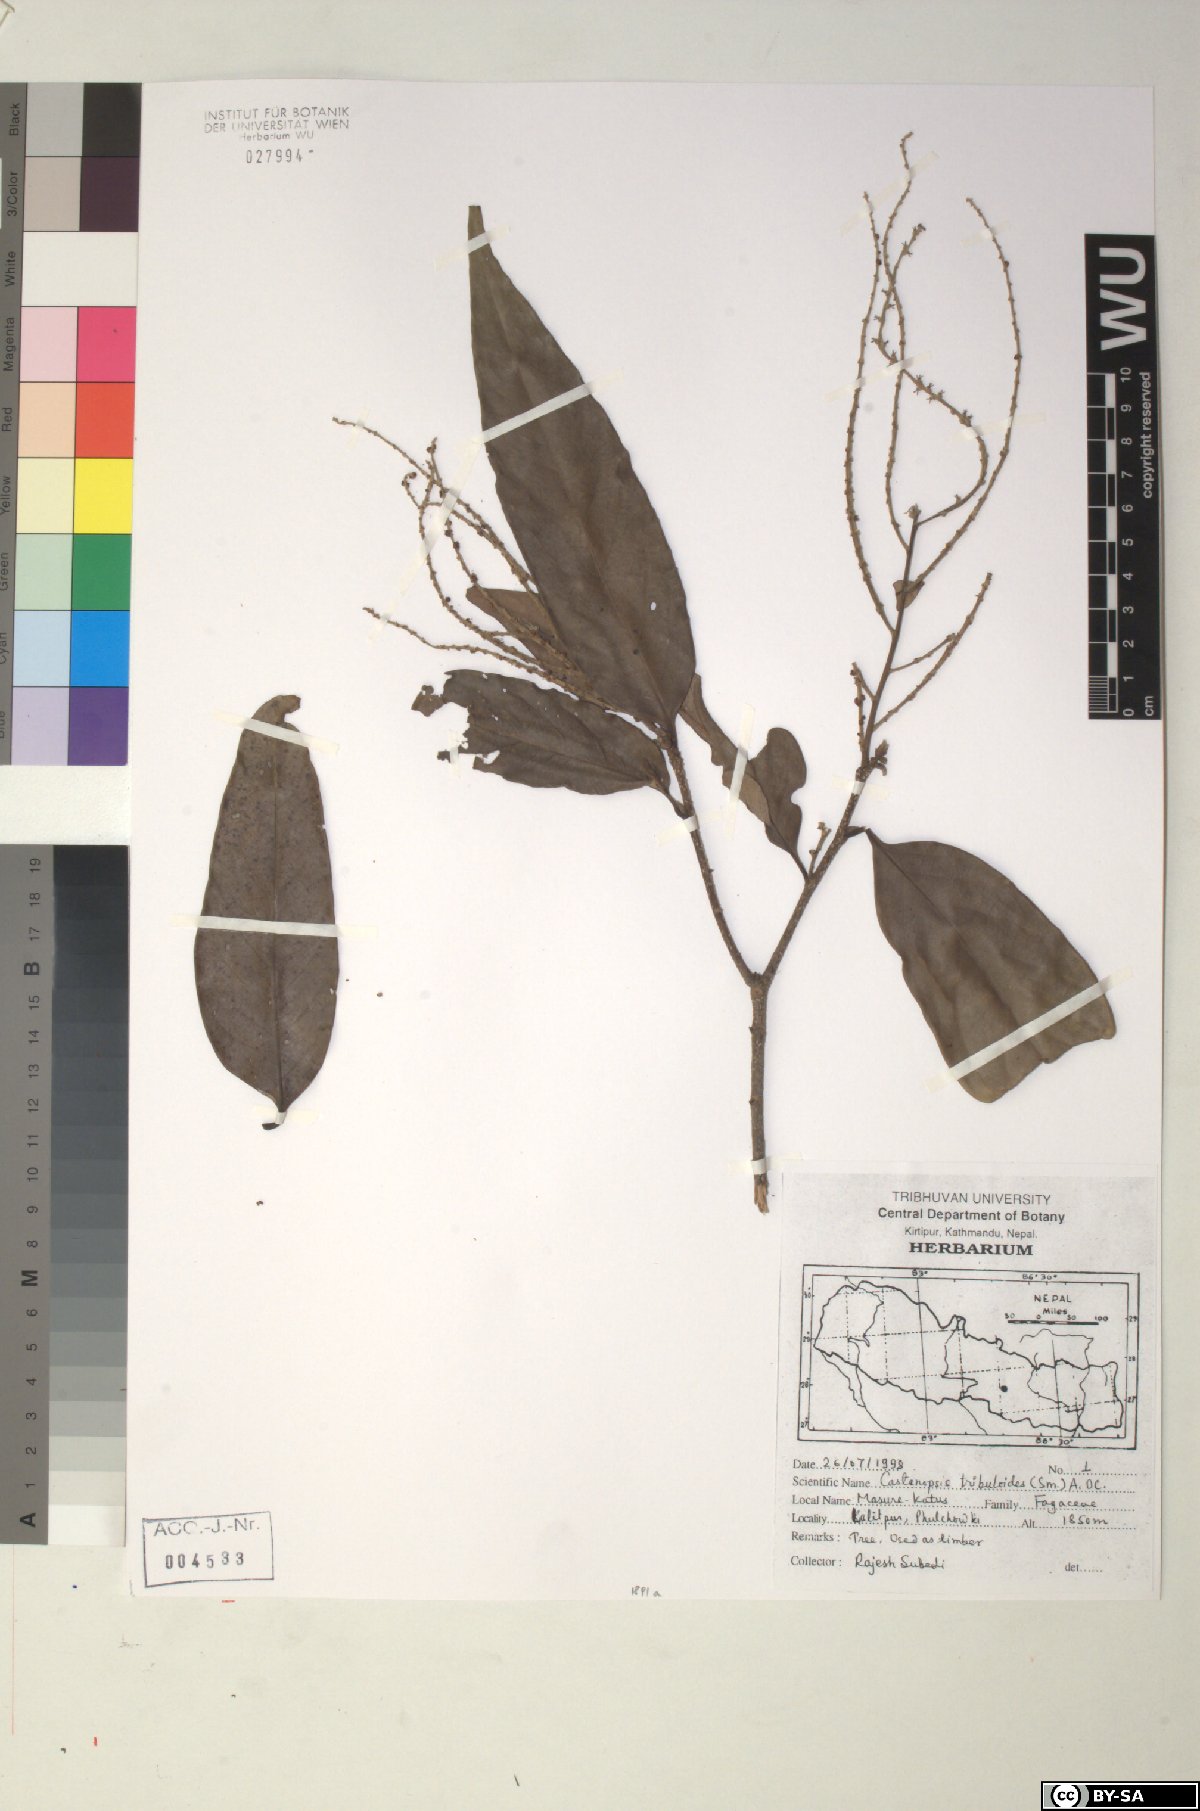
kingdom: Plantae
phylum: Tracheophyta
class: Magnoliopsida
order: Fagales
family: Fagaceae
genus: Castanopsis
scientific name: Castanopsis tribuloides
